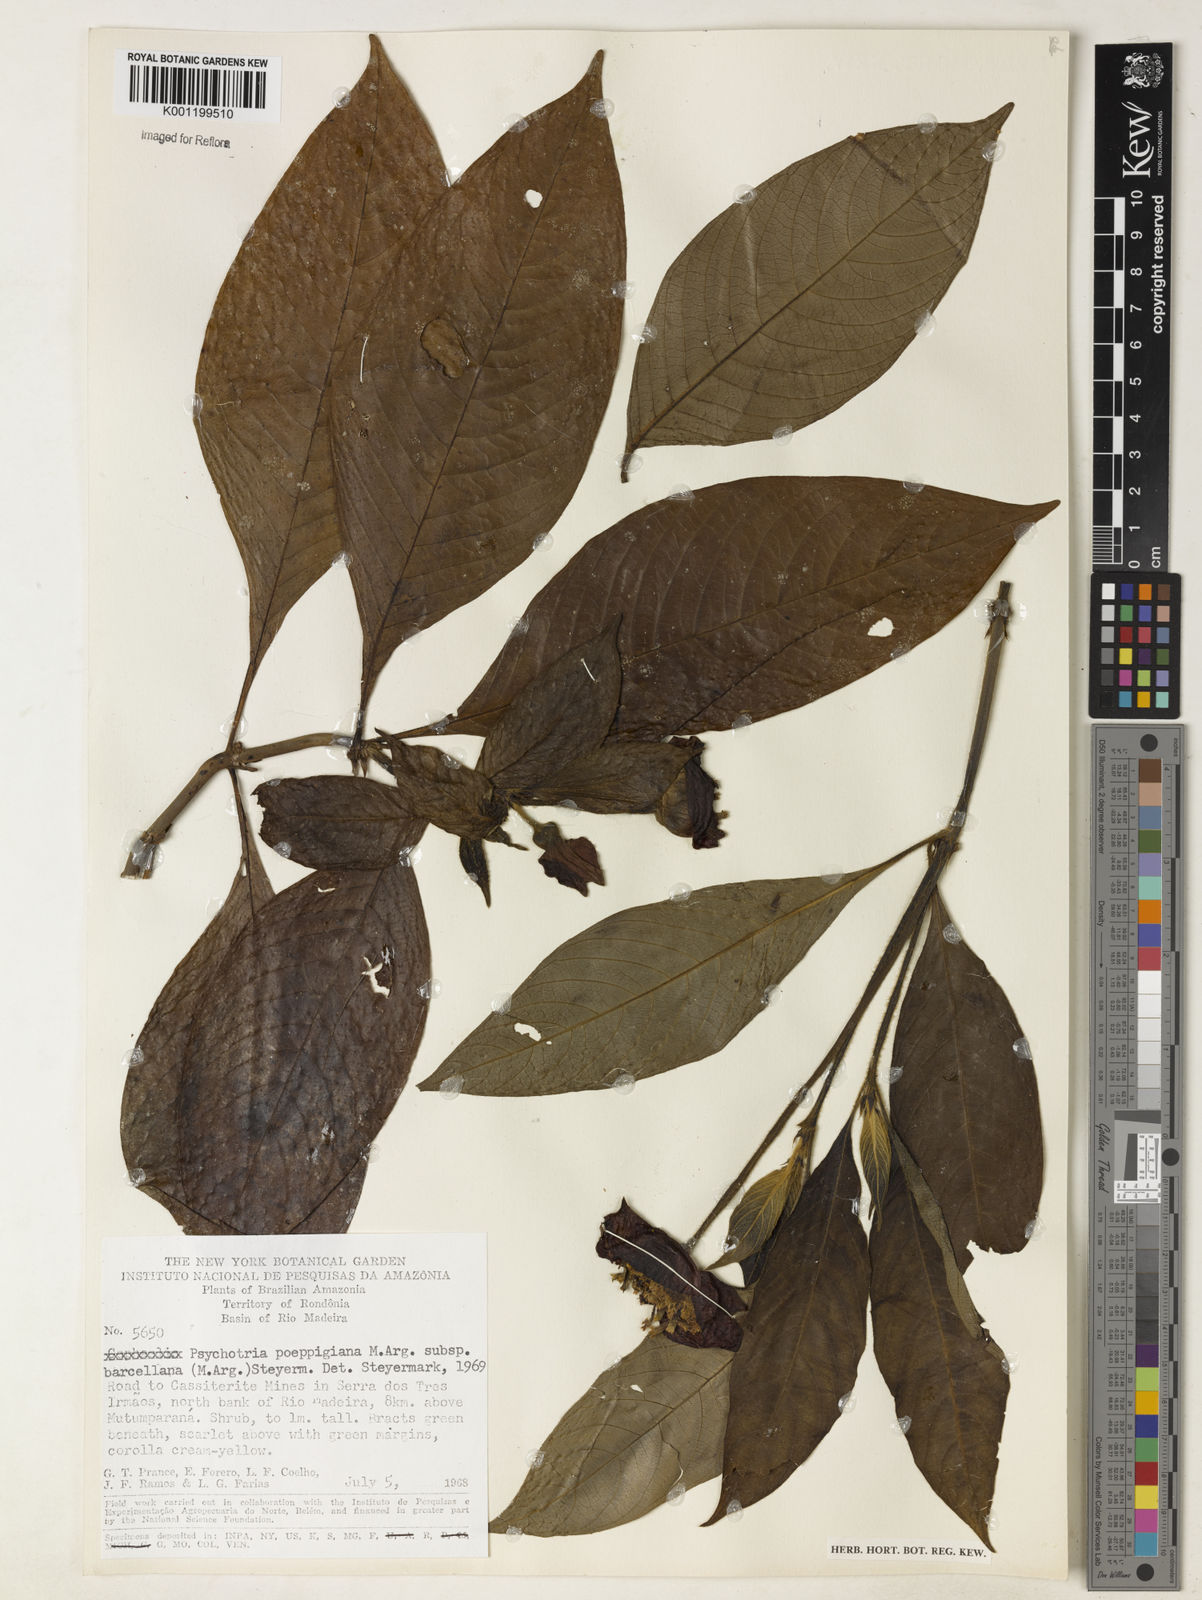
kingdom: Plantae
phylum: Tracheophyta
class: Magnoliopsida
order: Gentianales
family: Rubiaceae
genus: Psychotria
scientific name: Psychotria
